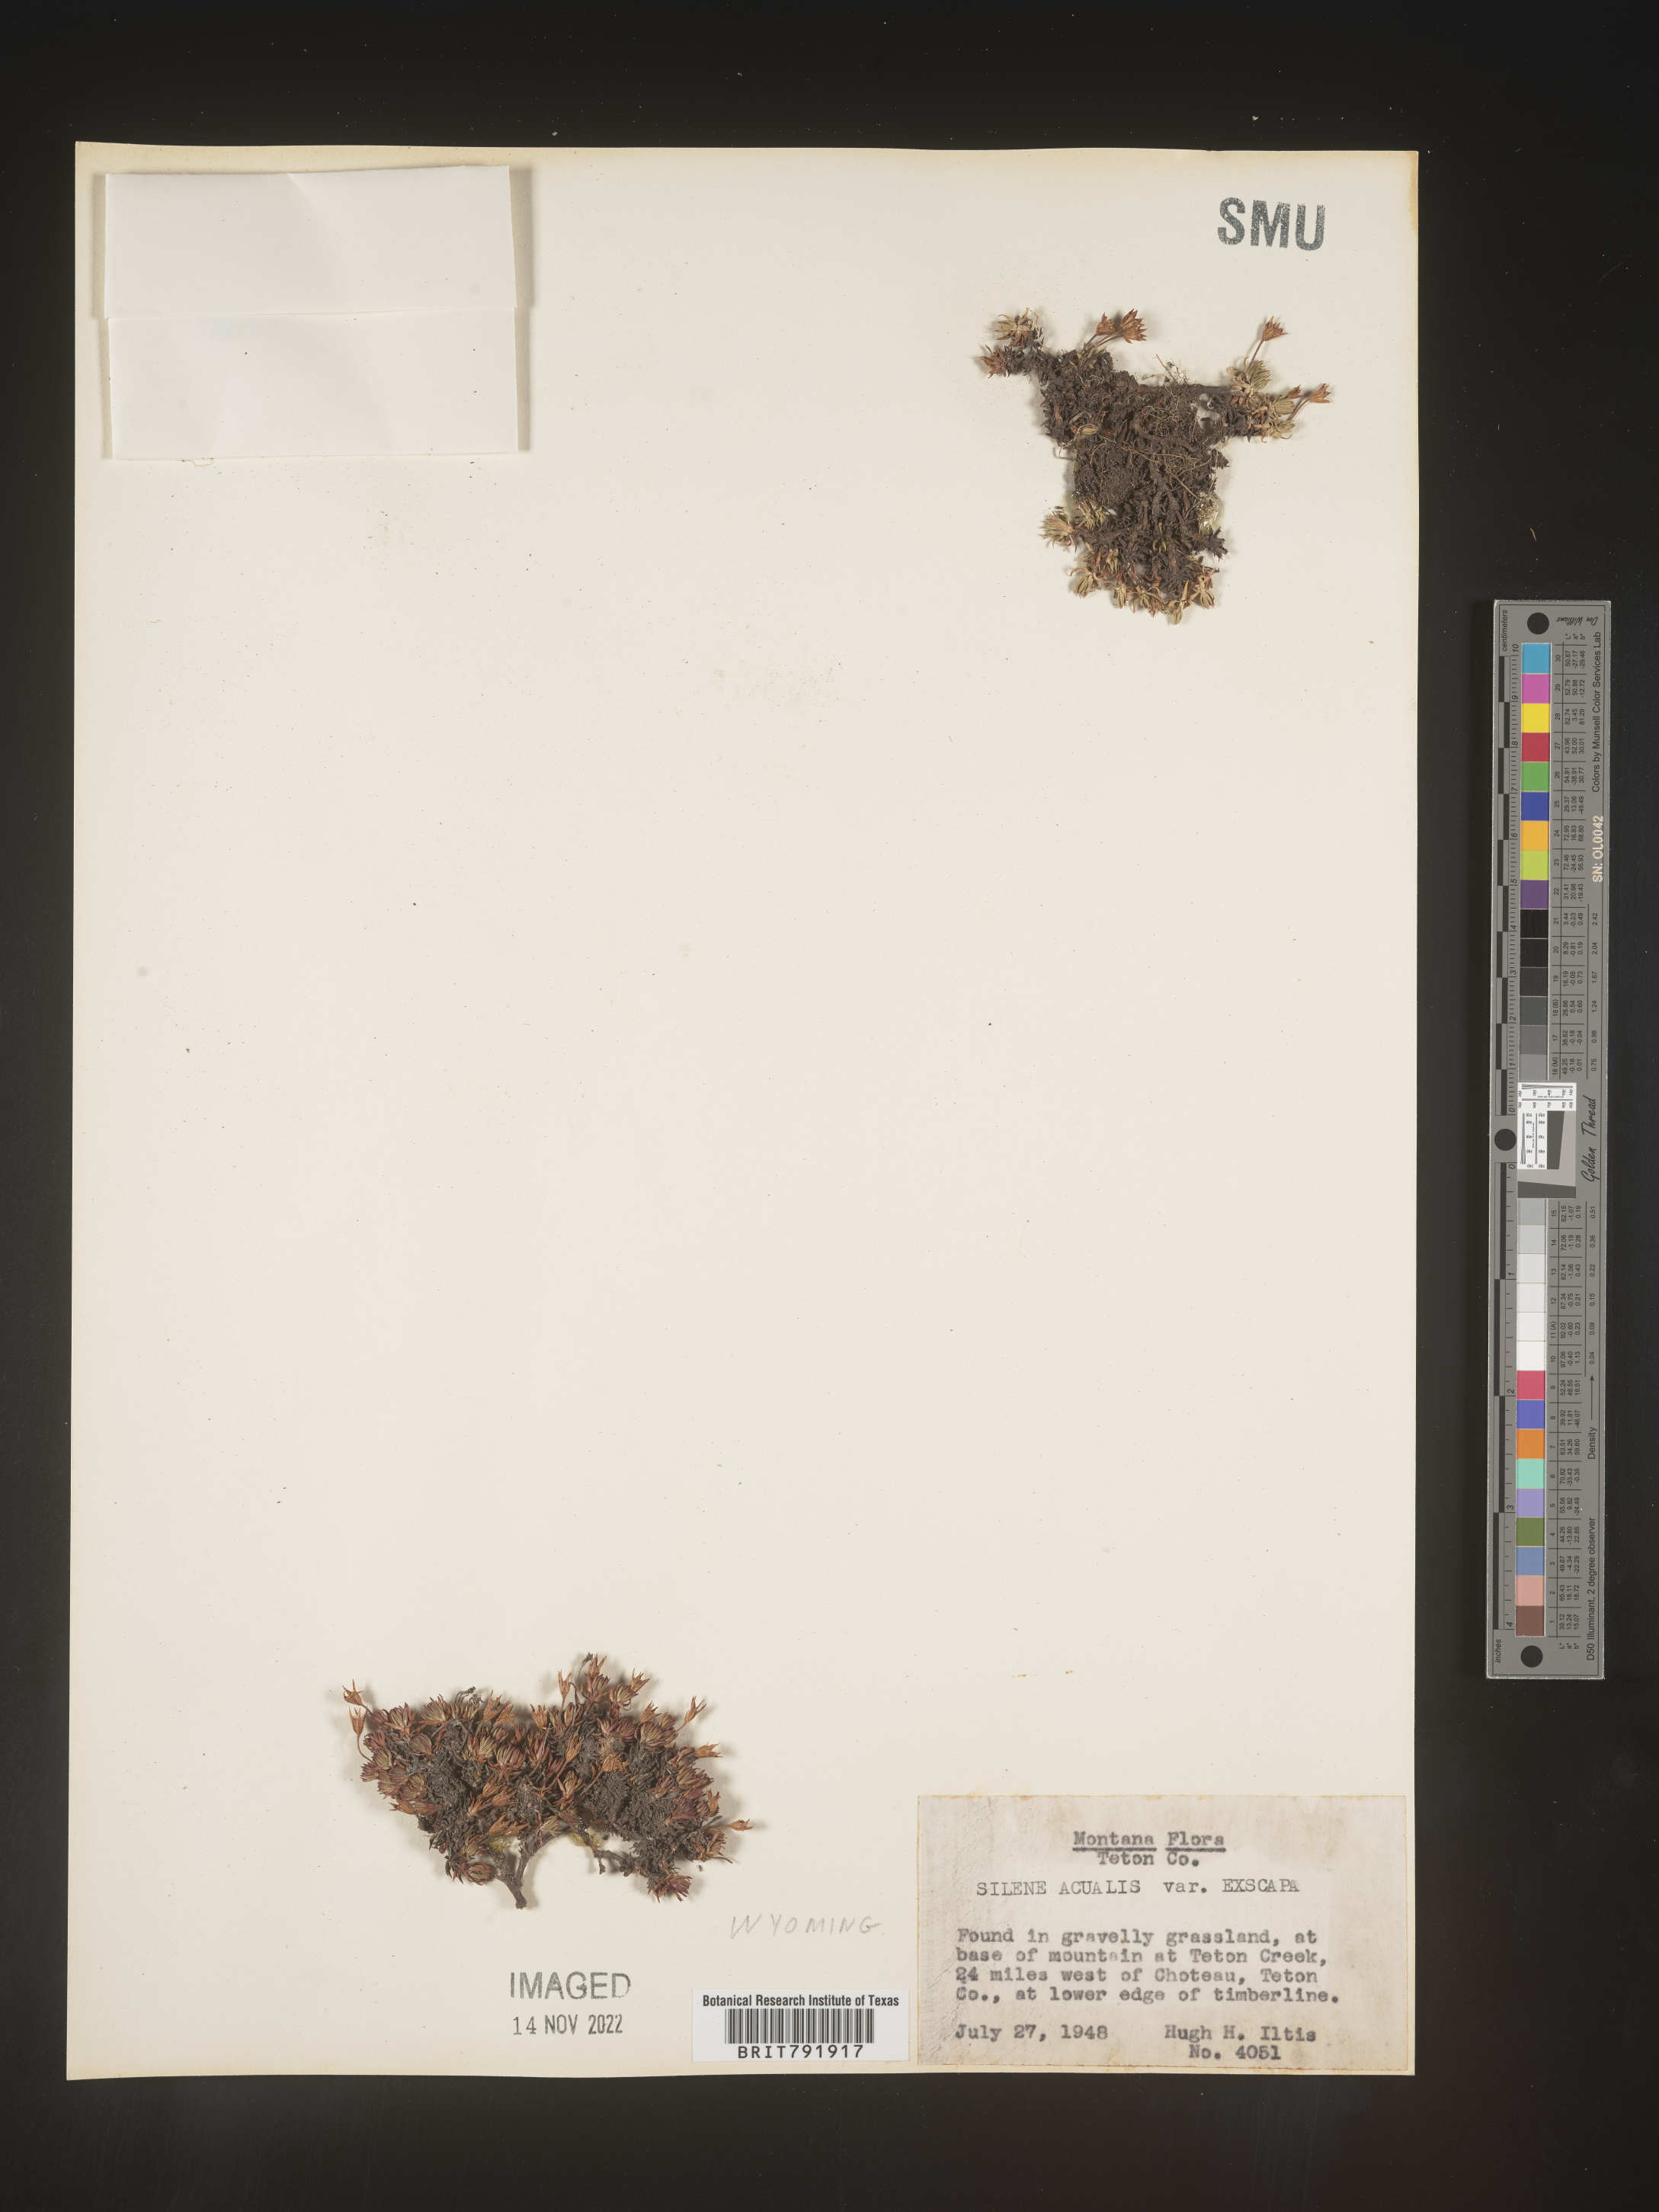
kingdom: Plantae
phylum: Tracheophyta
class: Magnoliopsida
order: Caryophyllales
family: Caryophyllaceae
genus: Silene
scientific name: Silene acaulis
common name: Moss campion
